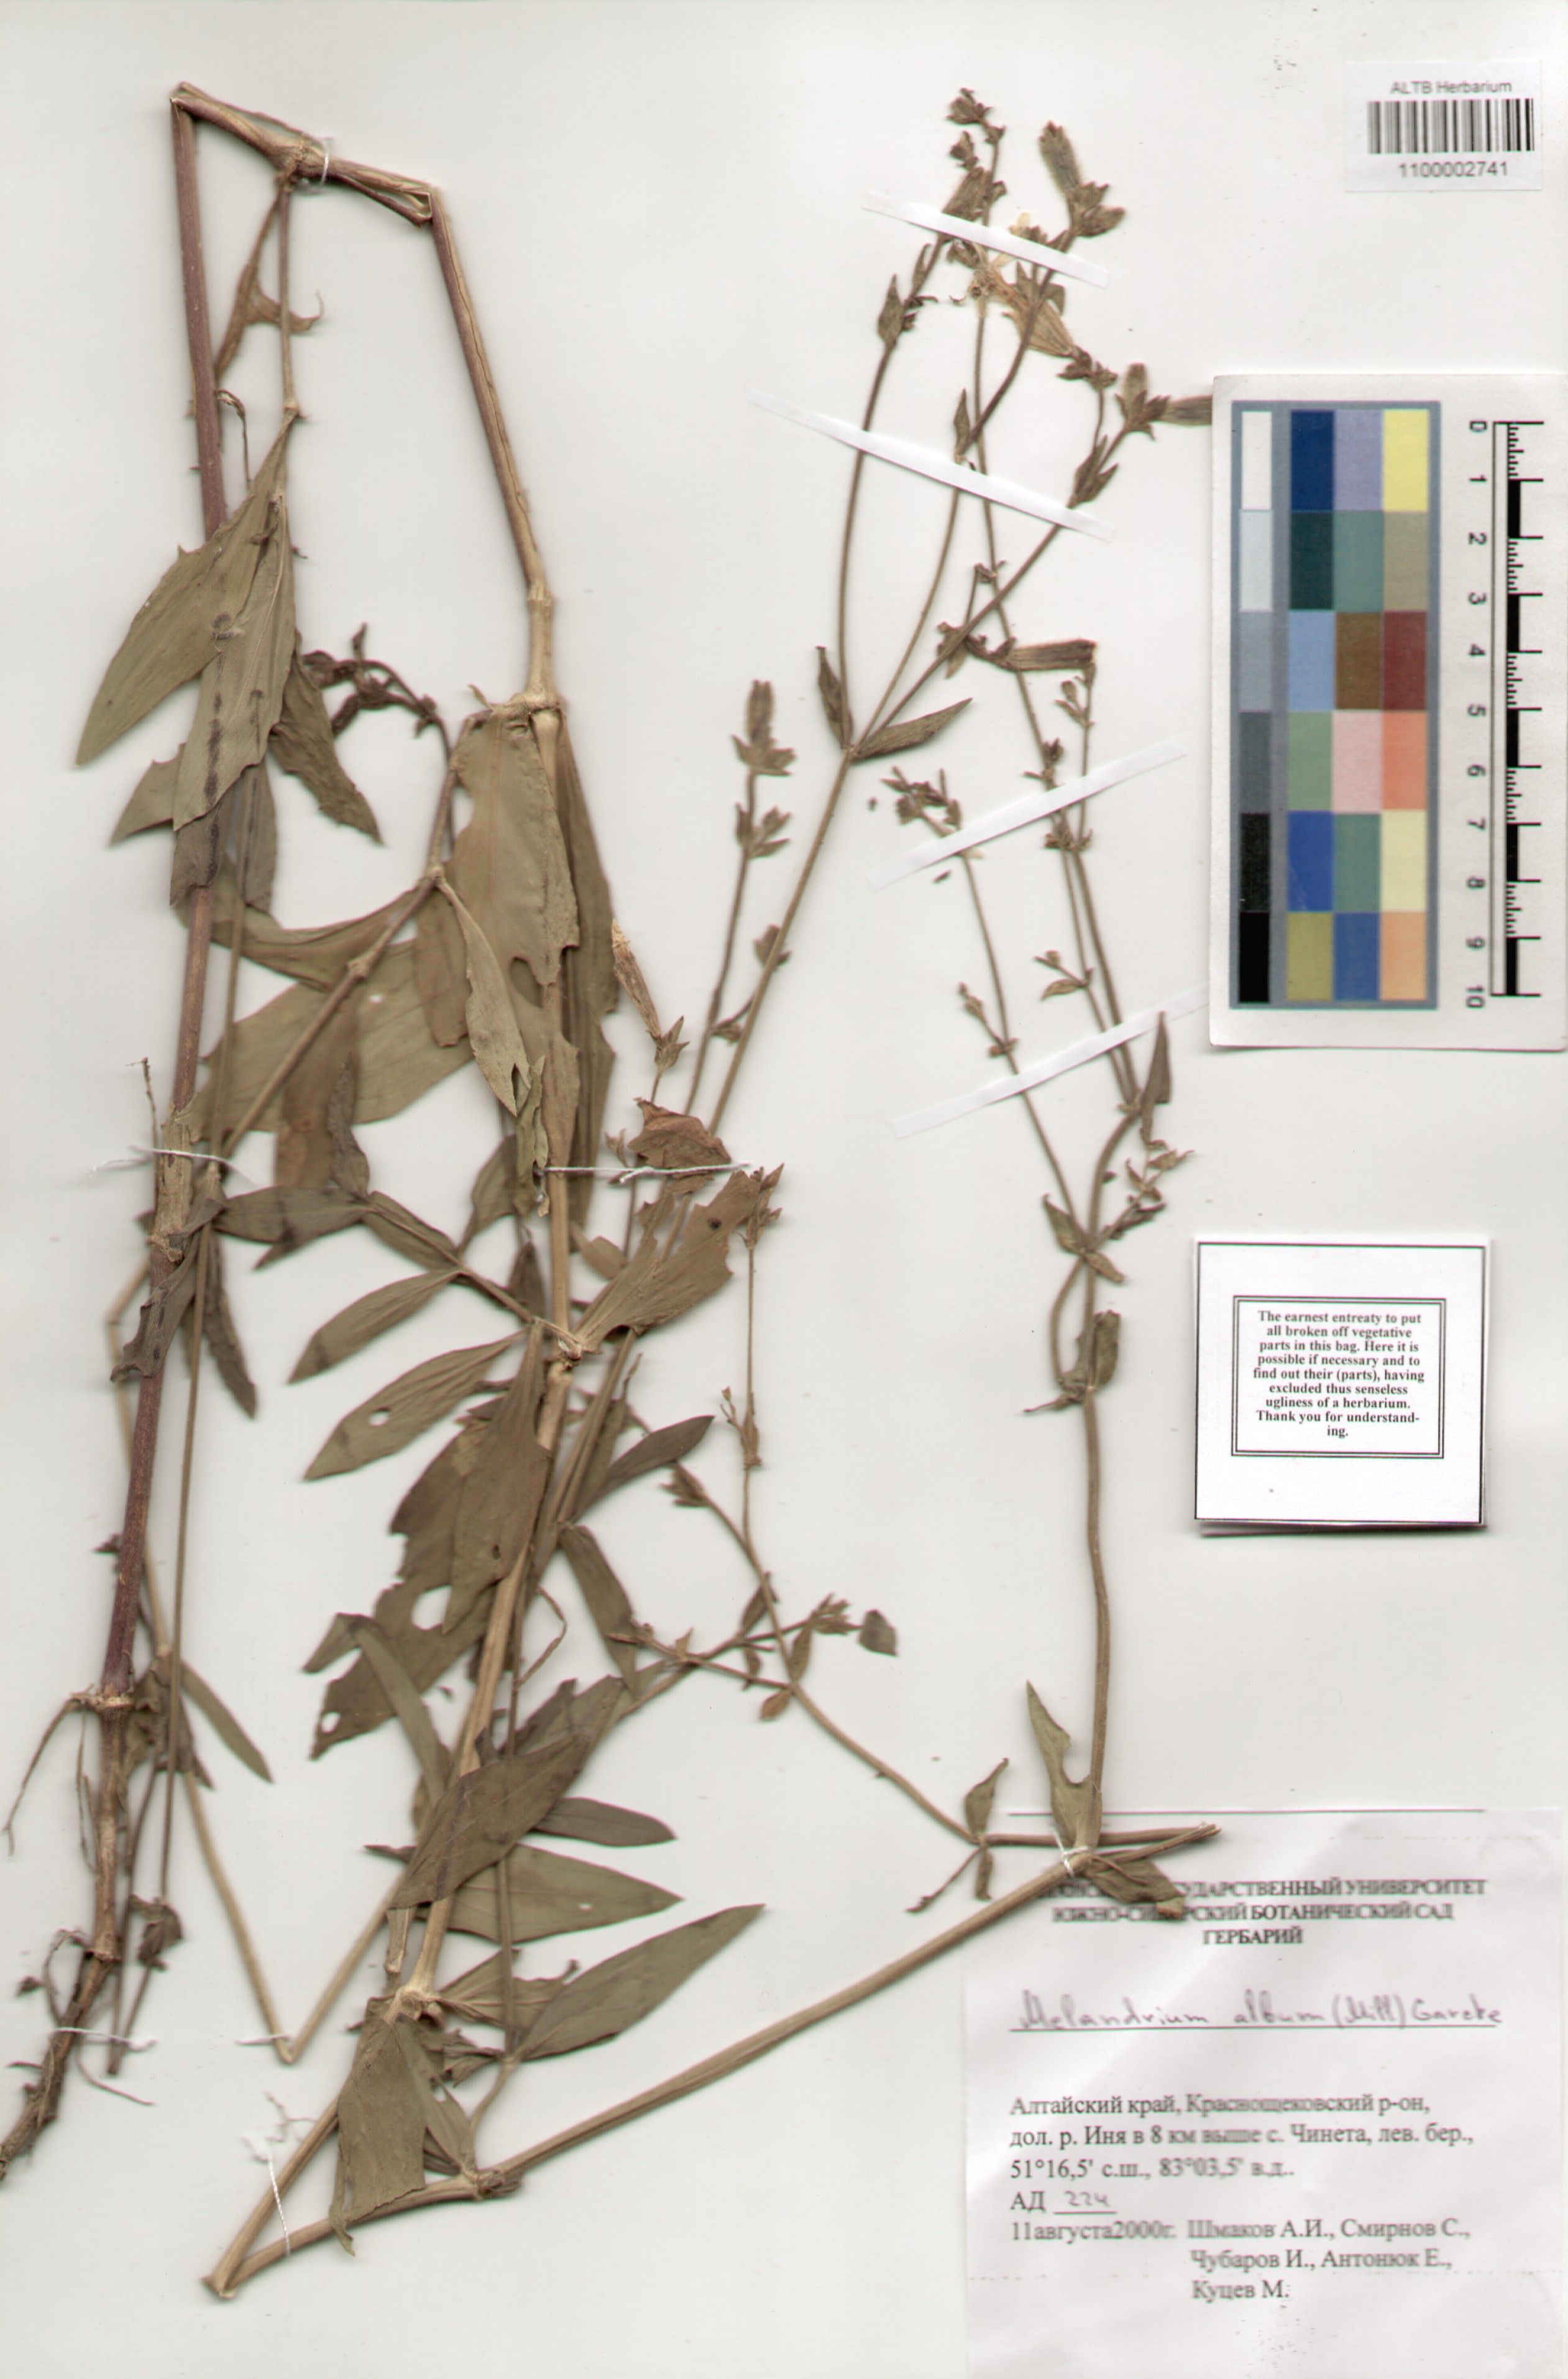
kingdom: Plantae
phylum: Tracheophyta
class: Magnoliopsida
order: Caryophyllales
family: Caryophyllaceae
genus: Silene
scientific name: Silene latifolia
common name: White campion
